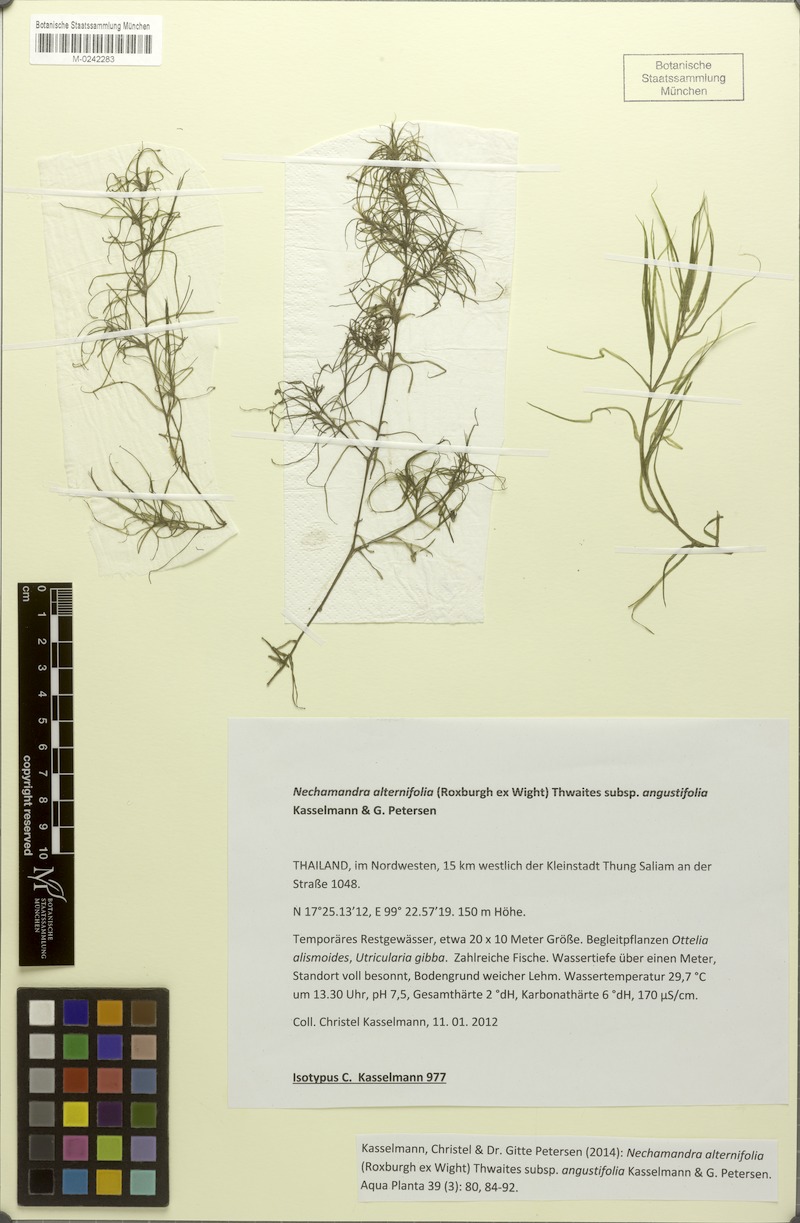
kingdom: Plantae
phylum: Tracheophyta
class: Liliopsida
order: Alismatales
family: Hydrocharitaceae
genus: Nechamandra
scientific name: Nechamandra alternifolia
